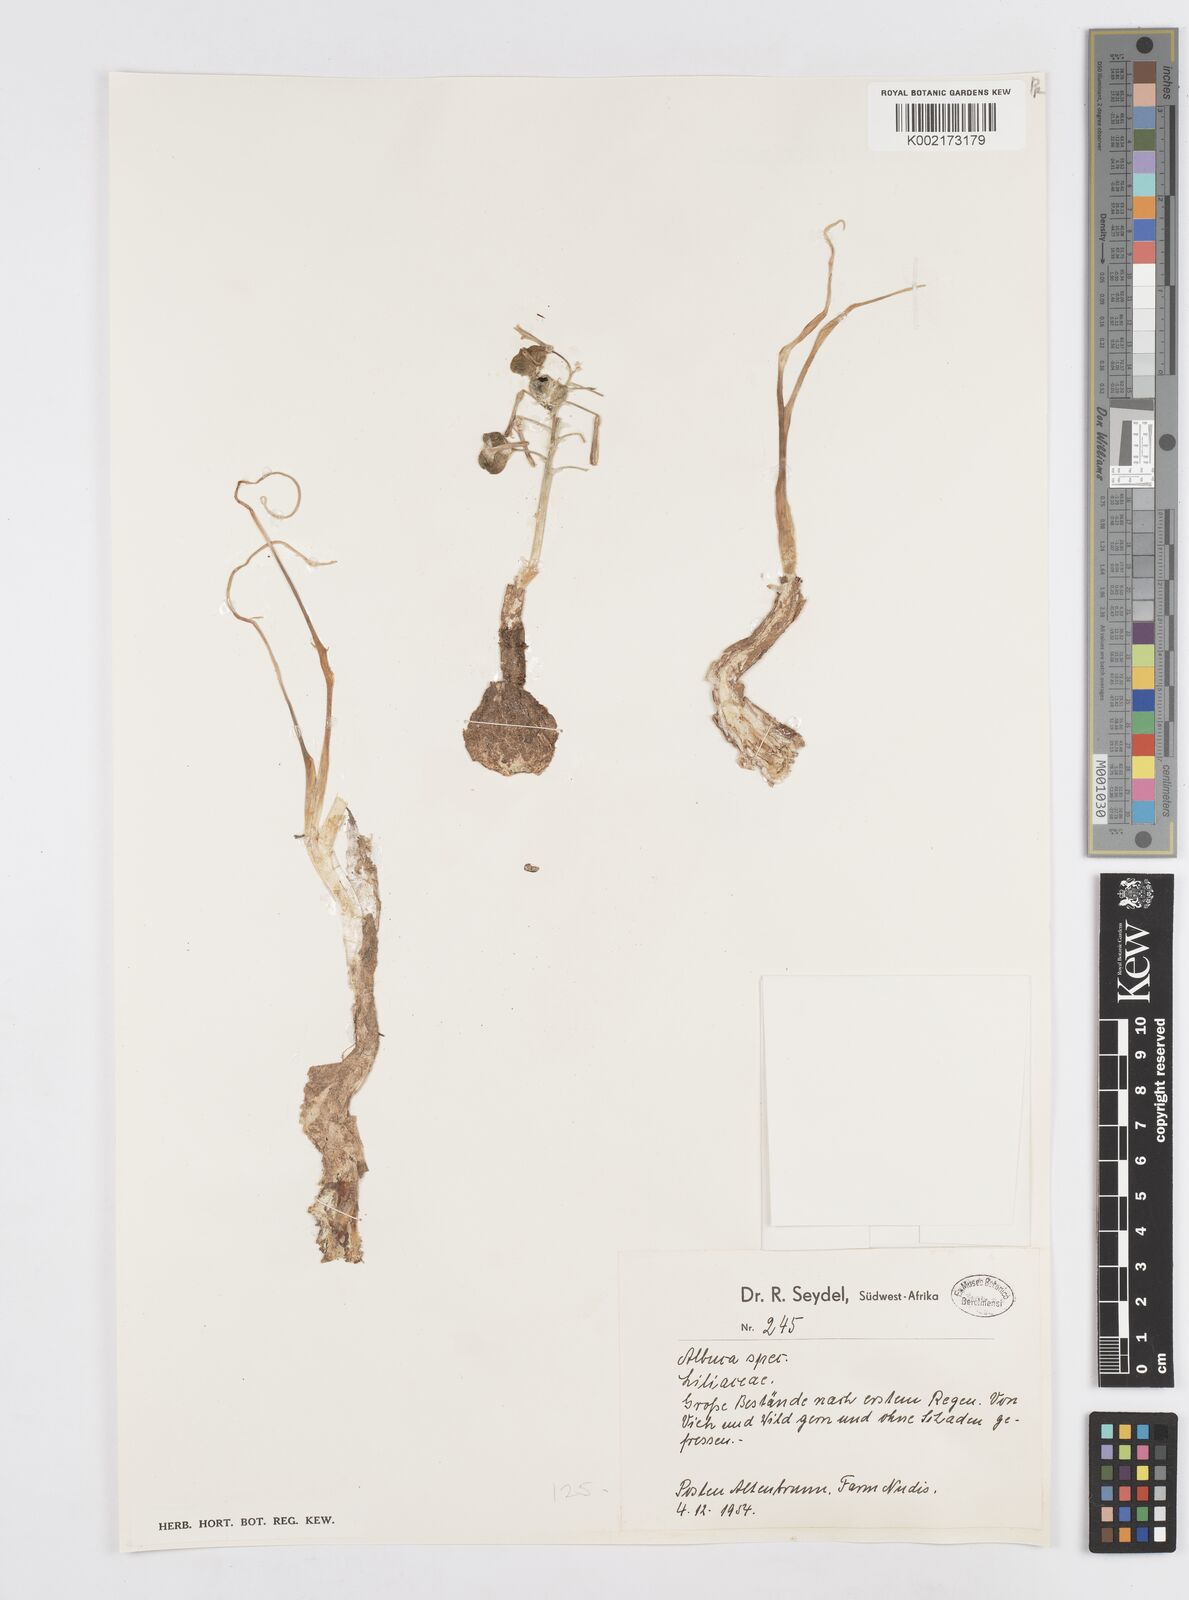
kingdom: Plantae
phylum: Tracheophyta
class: Liliopsida
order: Asparagales
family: Asparagaceae
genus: Albuca
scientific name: Albuca
